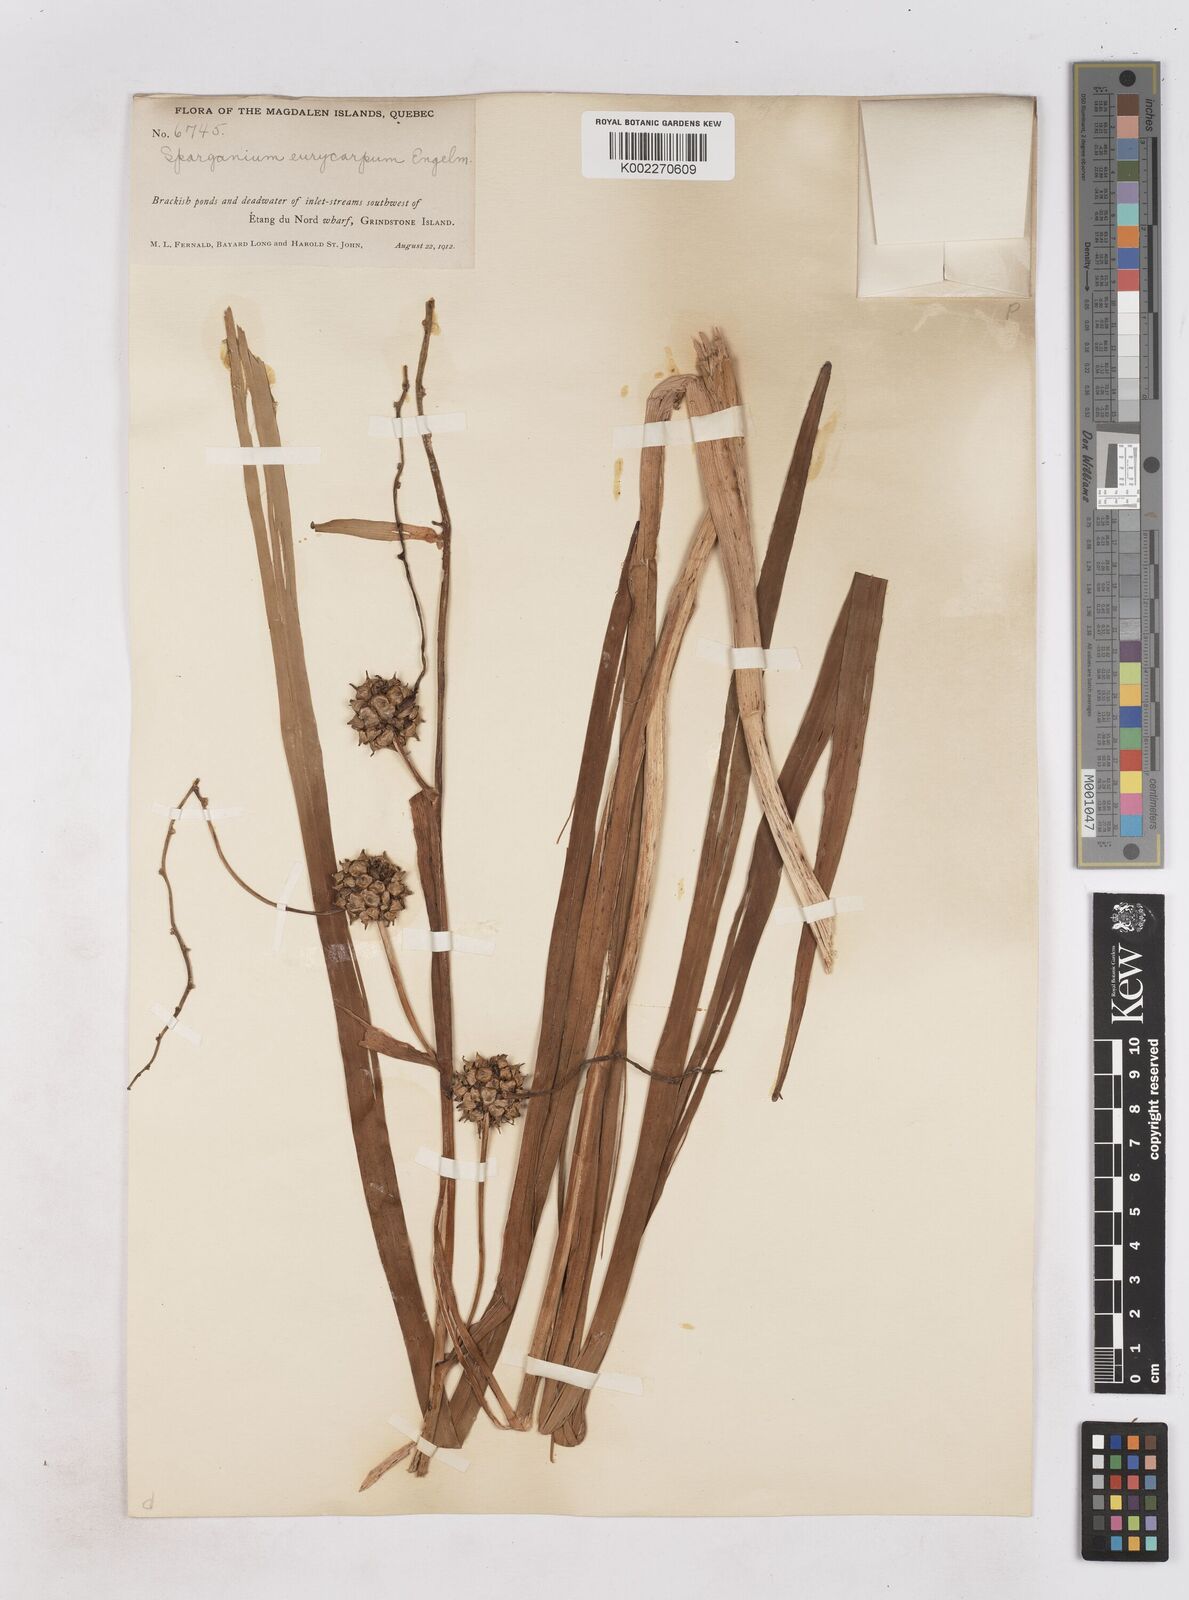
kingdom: Plantae
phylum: Tracheophyta
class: Liliopsida
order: Poales
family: Typhaceae
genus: Sparganium
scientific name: Sparganium eurycarpum
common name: Broad-fruited burreed
